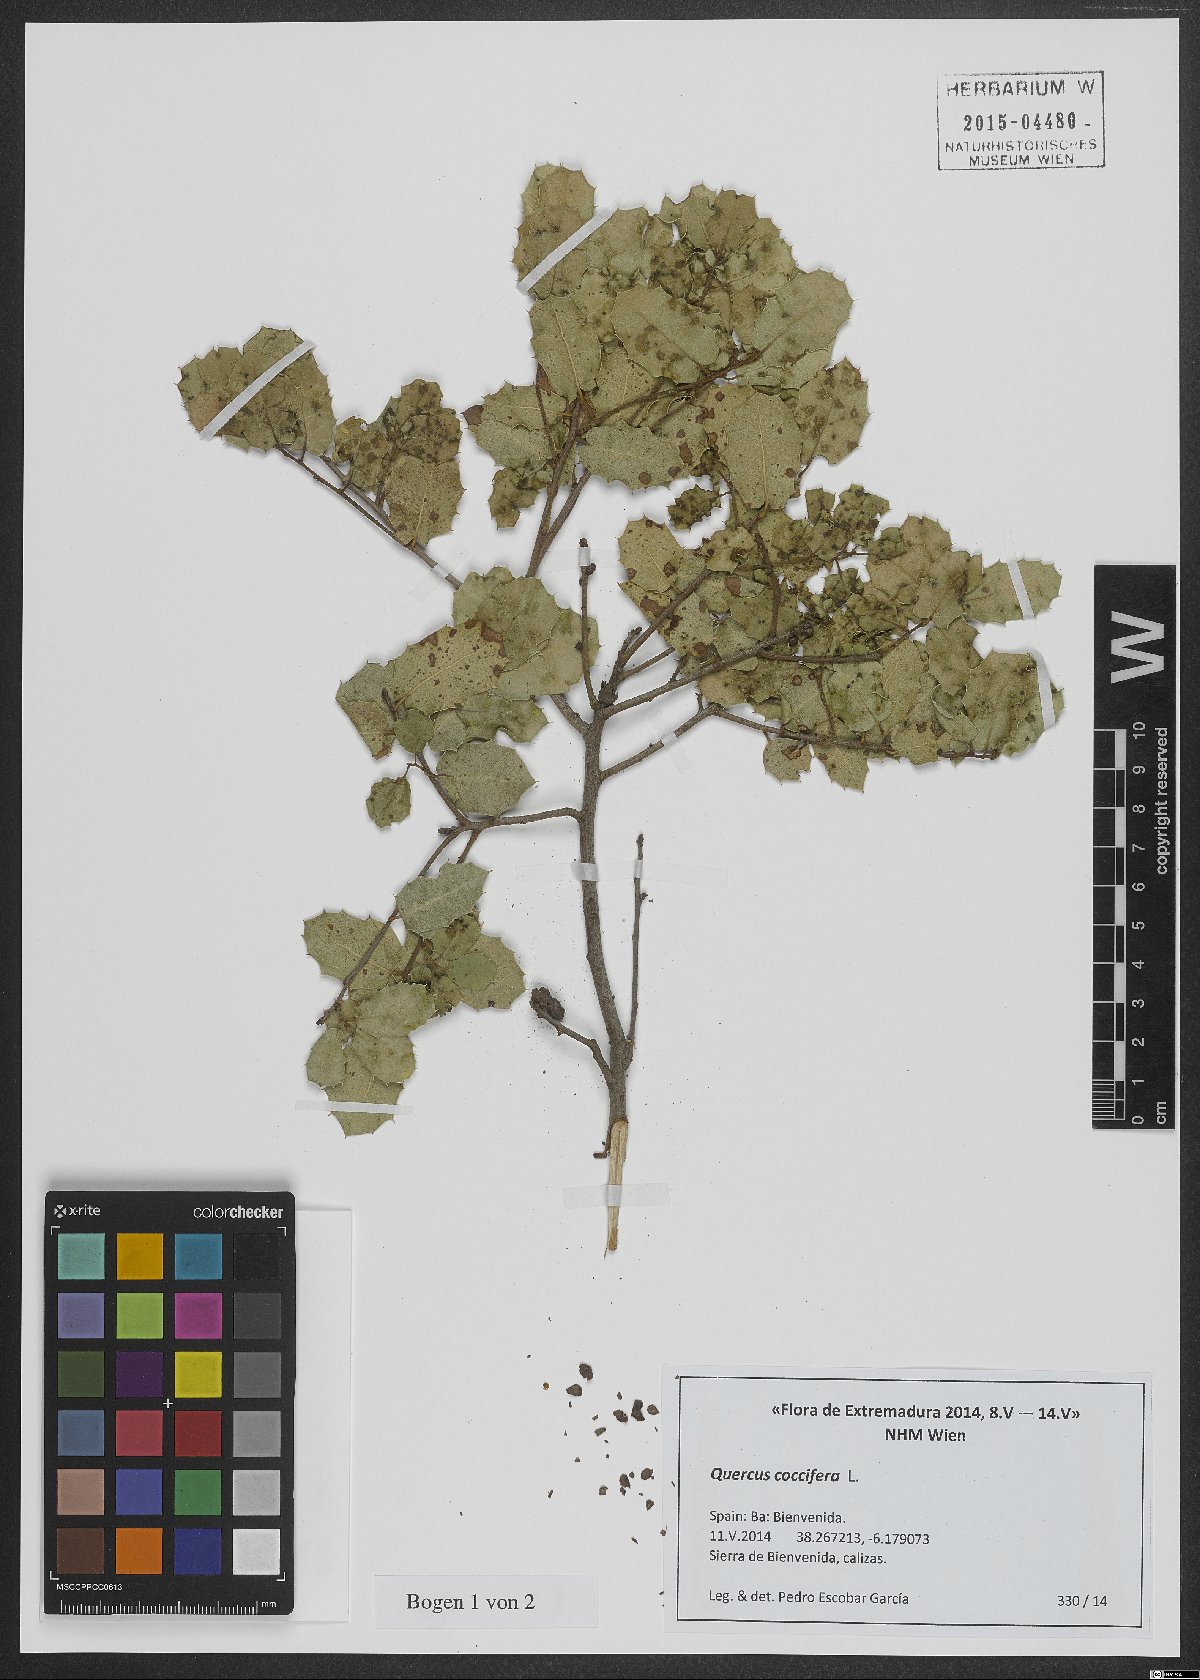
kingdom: Plantae
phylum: Tracheophyta
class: Magnoliopsida
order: Fagales
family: Fagaceae
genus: Quercus
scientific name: Quercus coccifera
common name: Kermes oak
